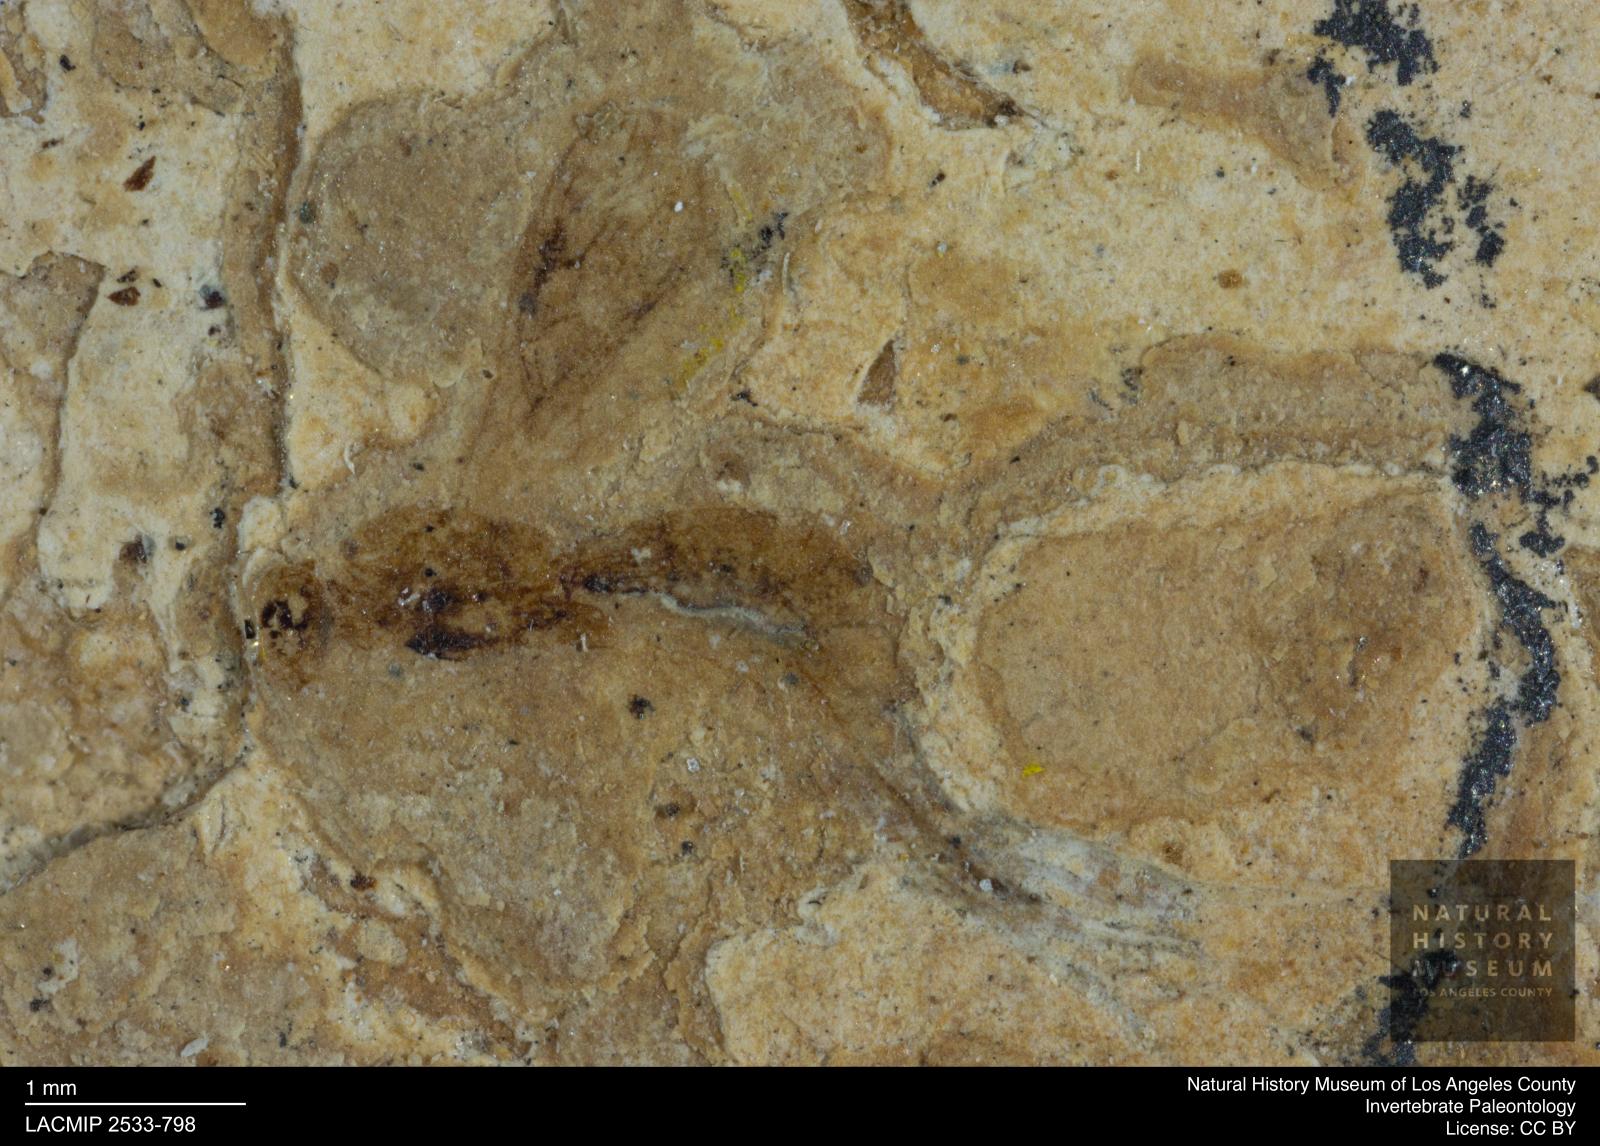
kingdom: Animalia
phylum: Arthropoda
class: Insecta
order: Hymenoptera
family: Braconidae
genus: Clinocentrus
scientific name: Clinocentrus rottensis
